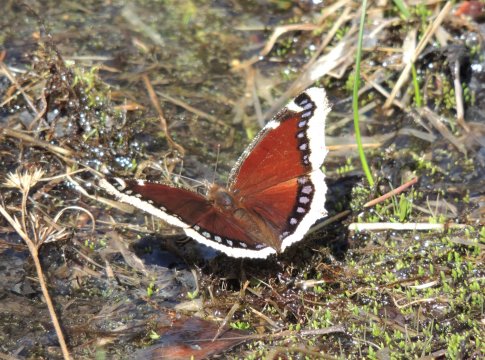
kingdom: Animalia
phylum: Arthropoda
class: Insecta
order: Lepidoptera
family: Nymphalidae
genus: Nymphalis
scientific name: Nymphalis antiopa
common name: Mourning Cloak
